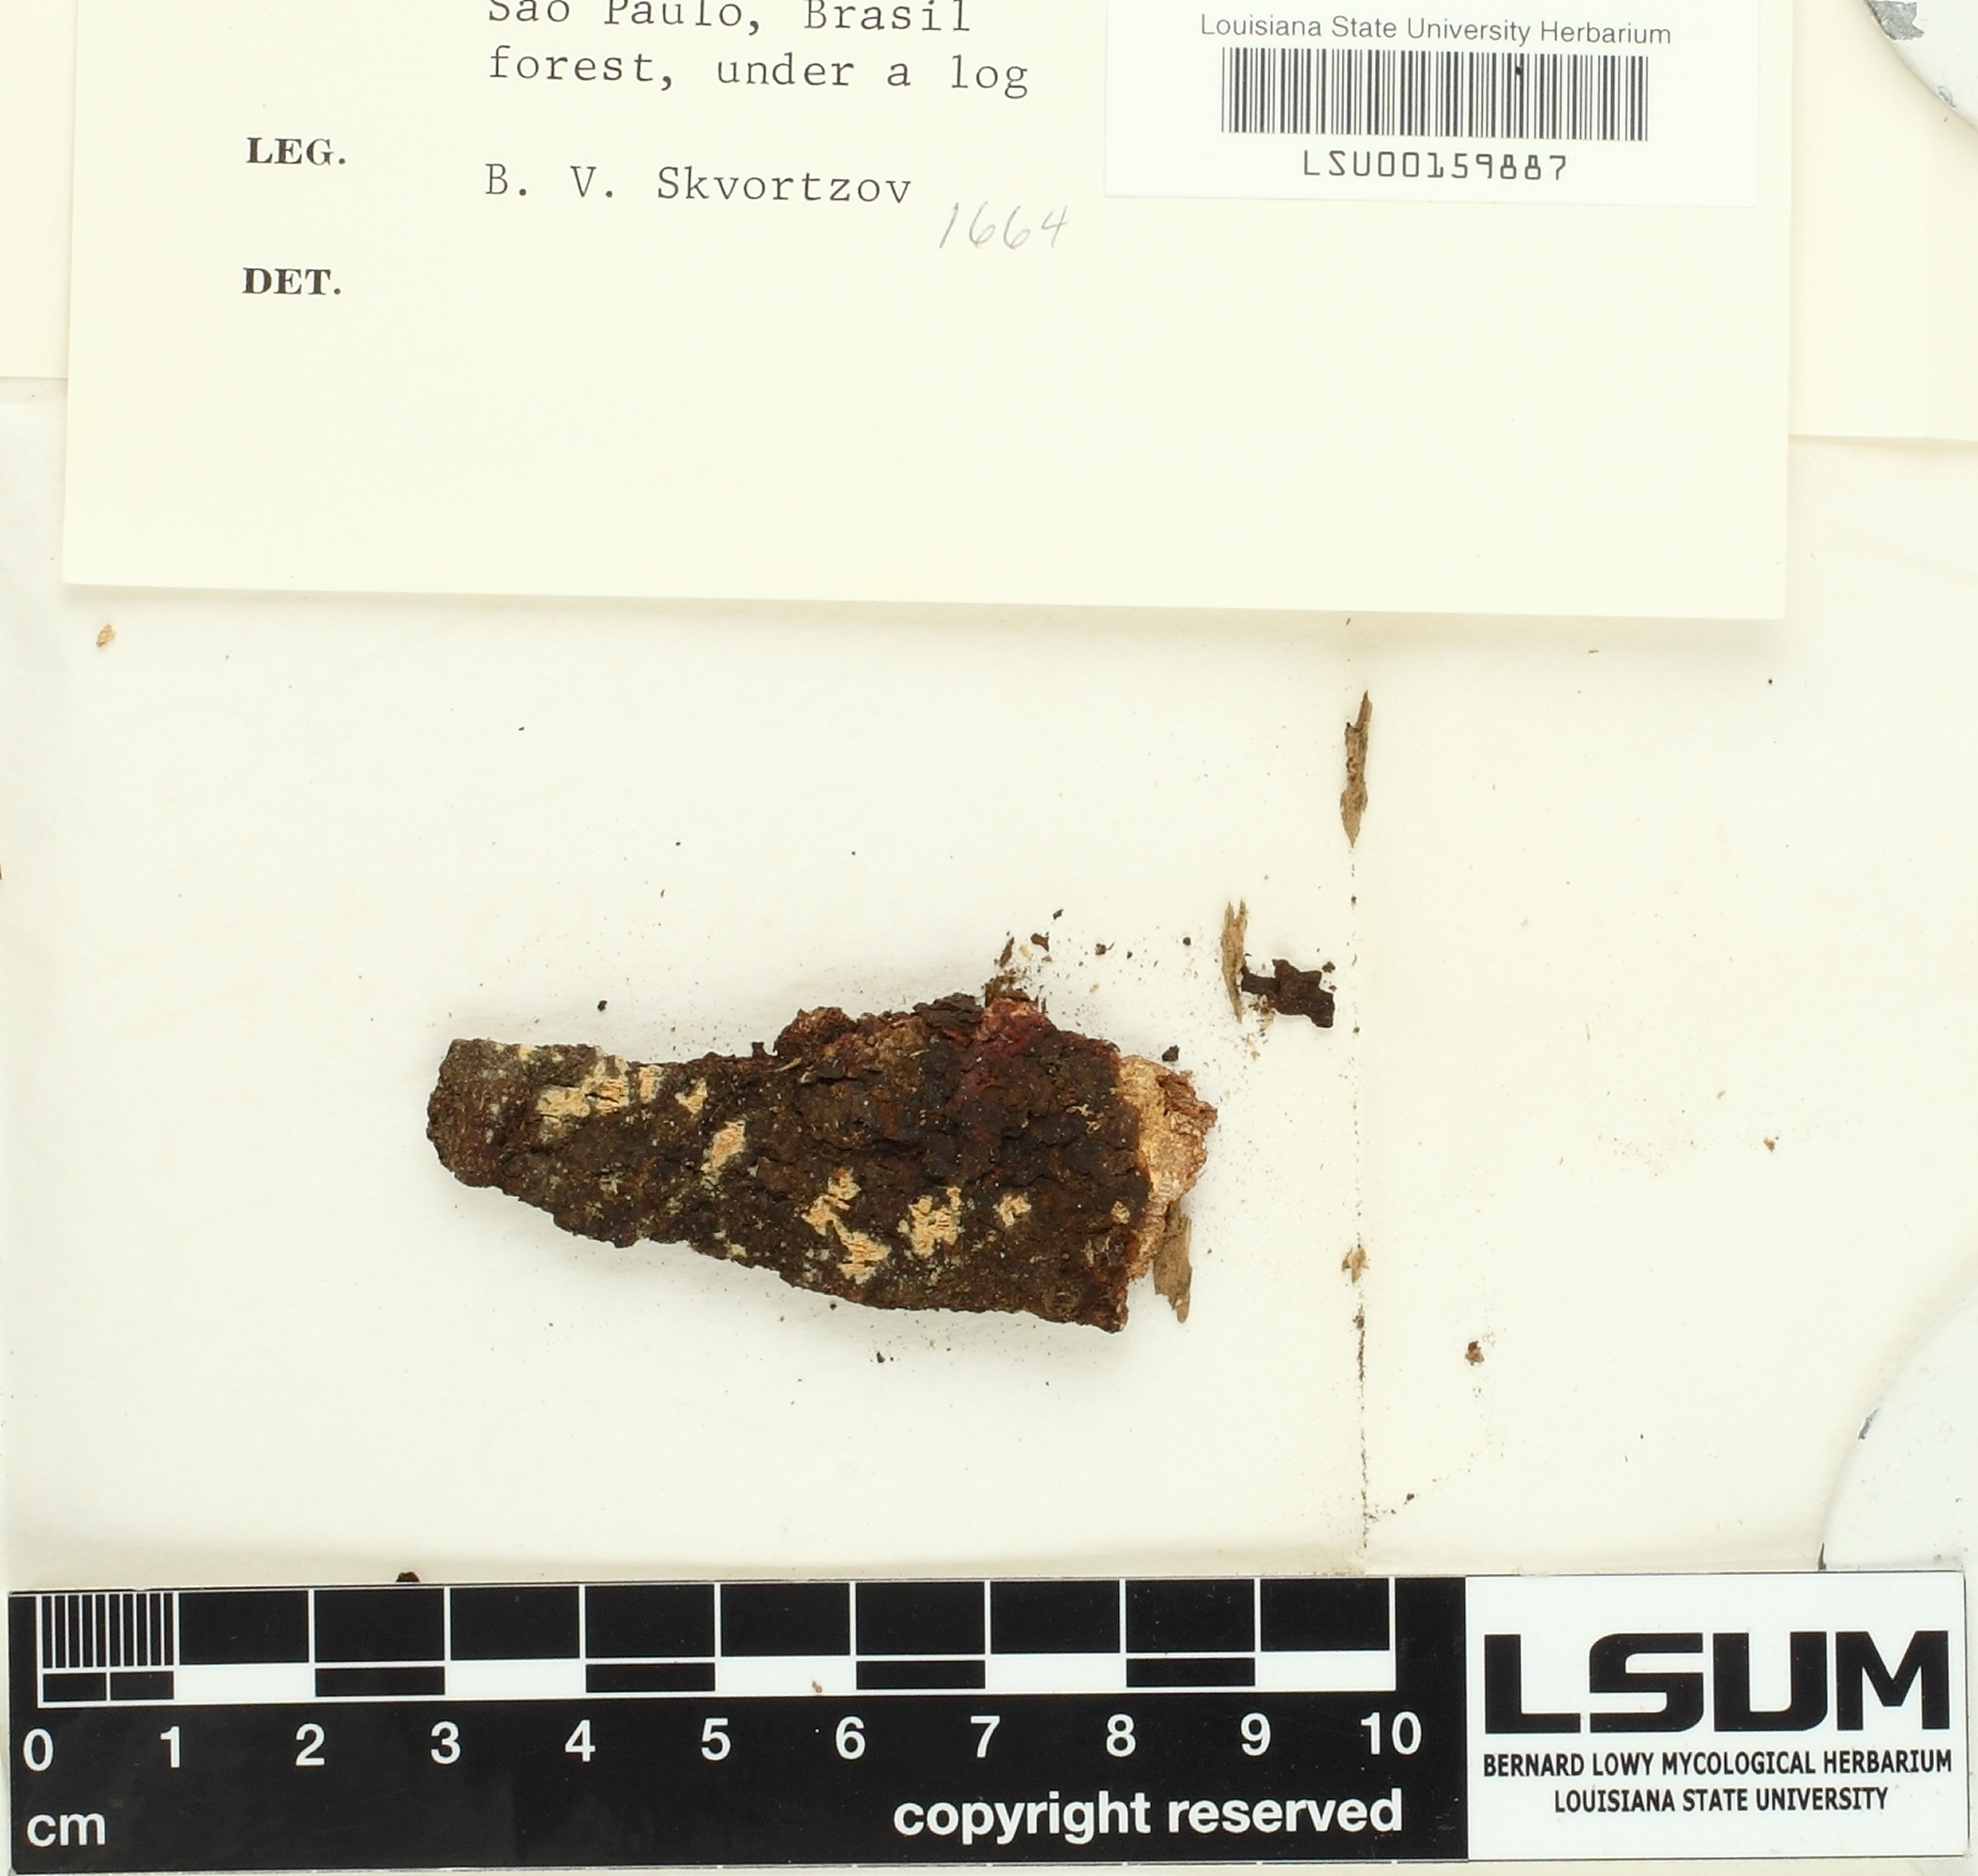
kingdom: Fungi
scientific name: Fungi
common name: Fungi
